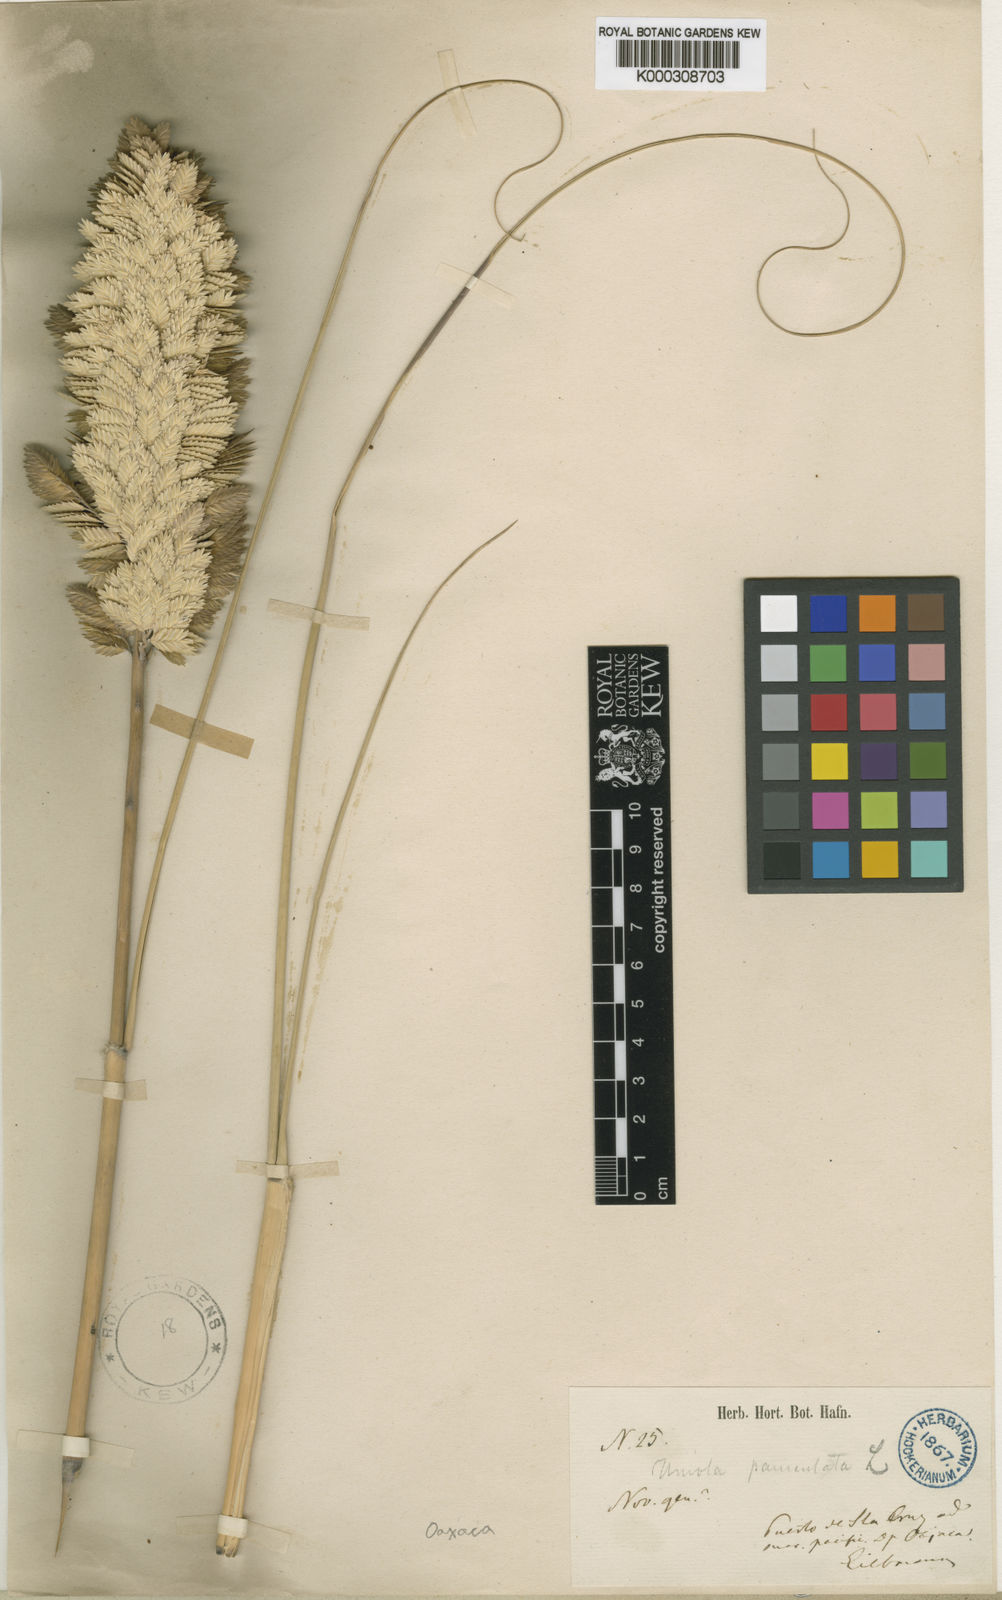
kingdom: Plantae
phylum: Tracheophyta
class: Liliopsida
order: Poales
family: Poaceae
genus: Uniola
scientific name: Uniola pittieri
